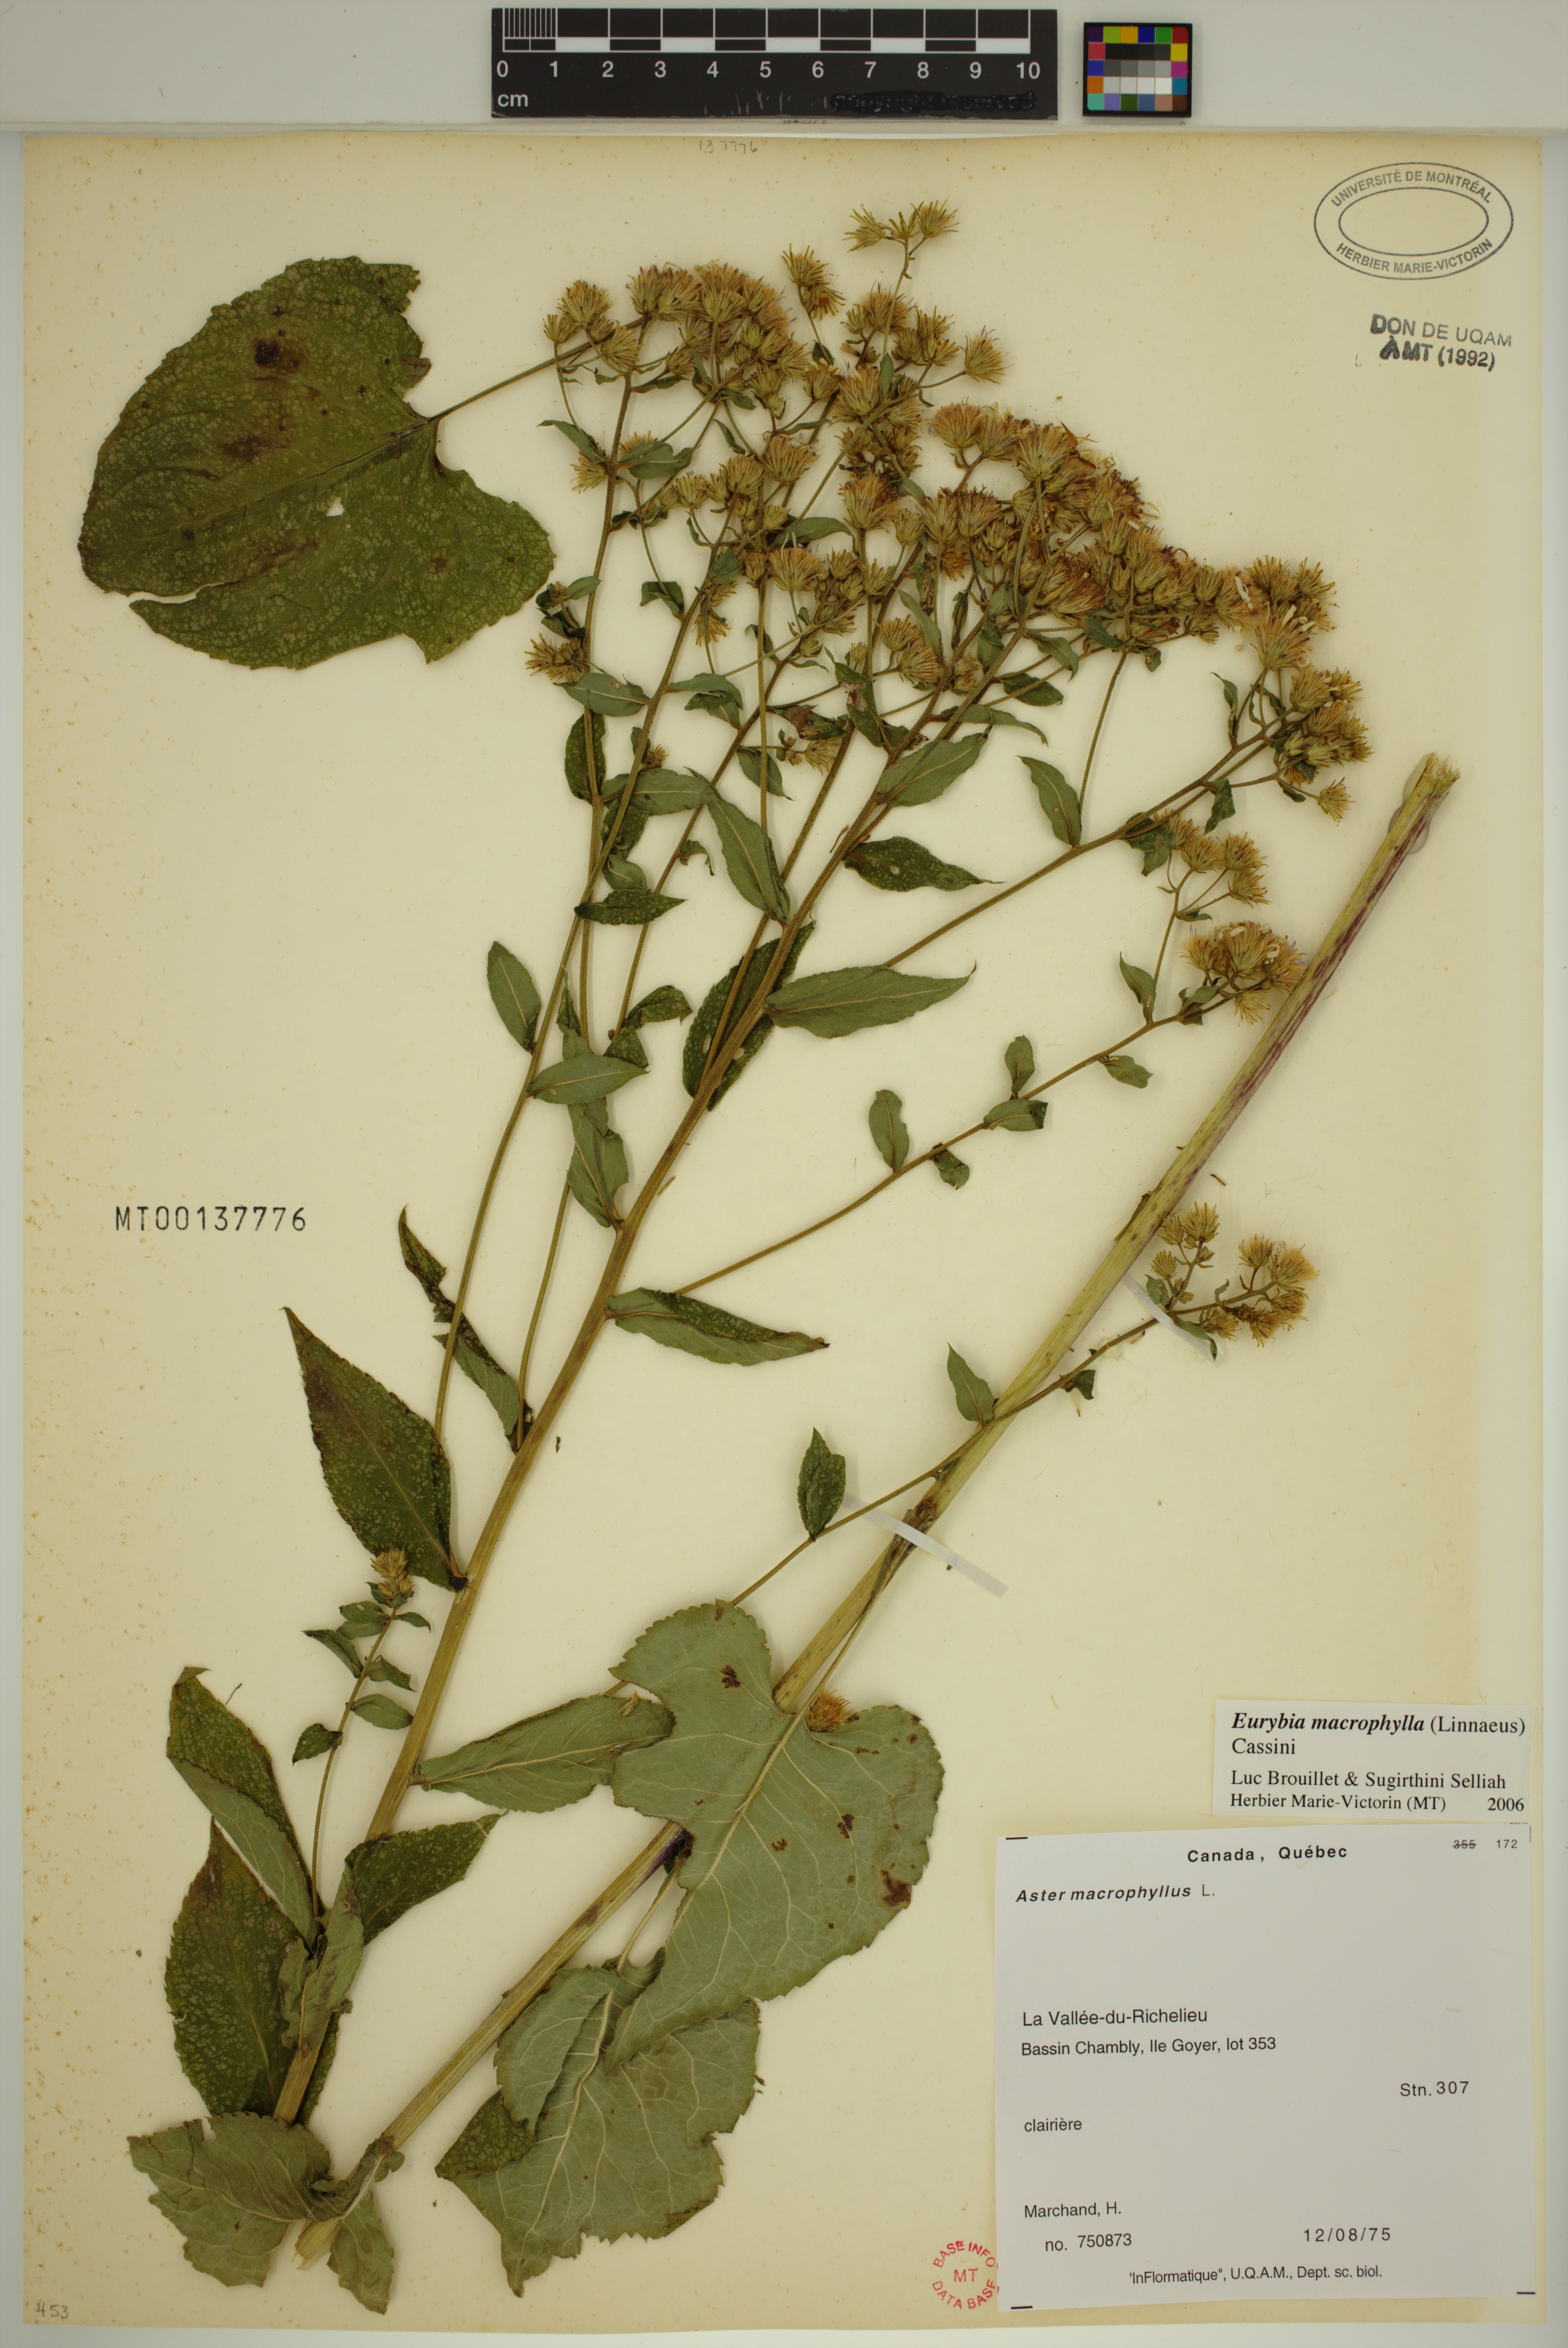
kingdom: Plantae
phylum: Tracheophyta
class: Magnoliopsida
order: Asterales
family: Asteraceae
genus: Eurybia
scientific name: Eurybia macrophylla
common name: Big-leaved aster
